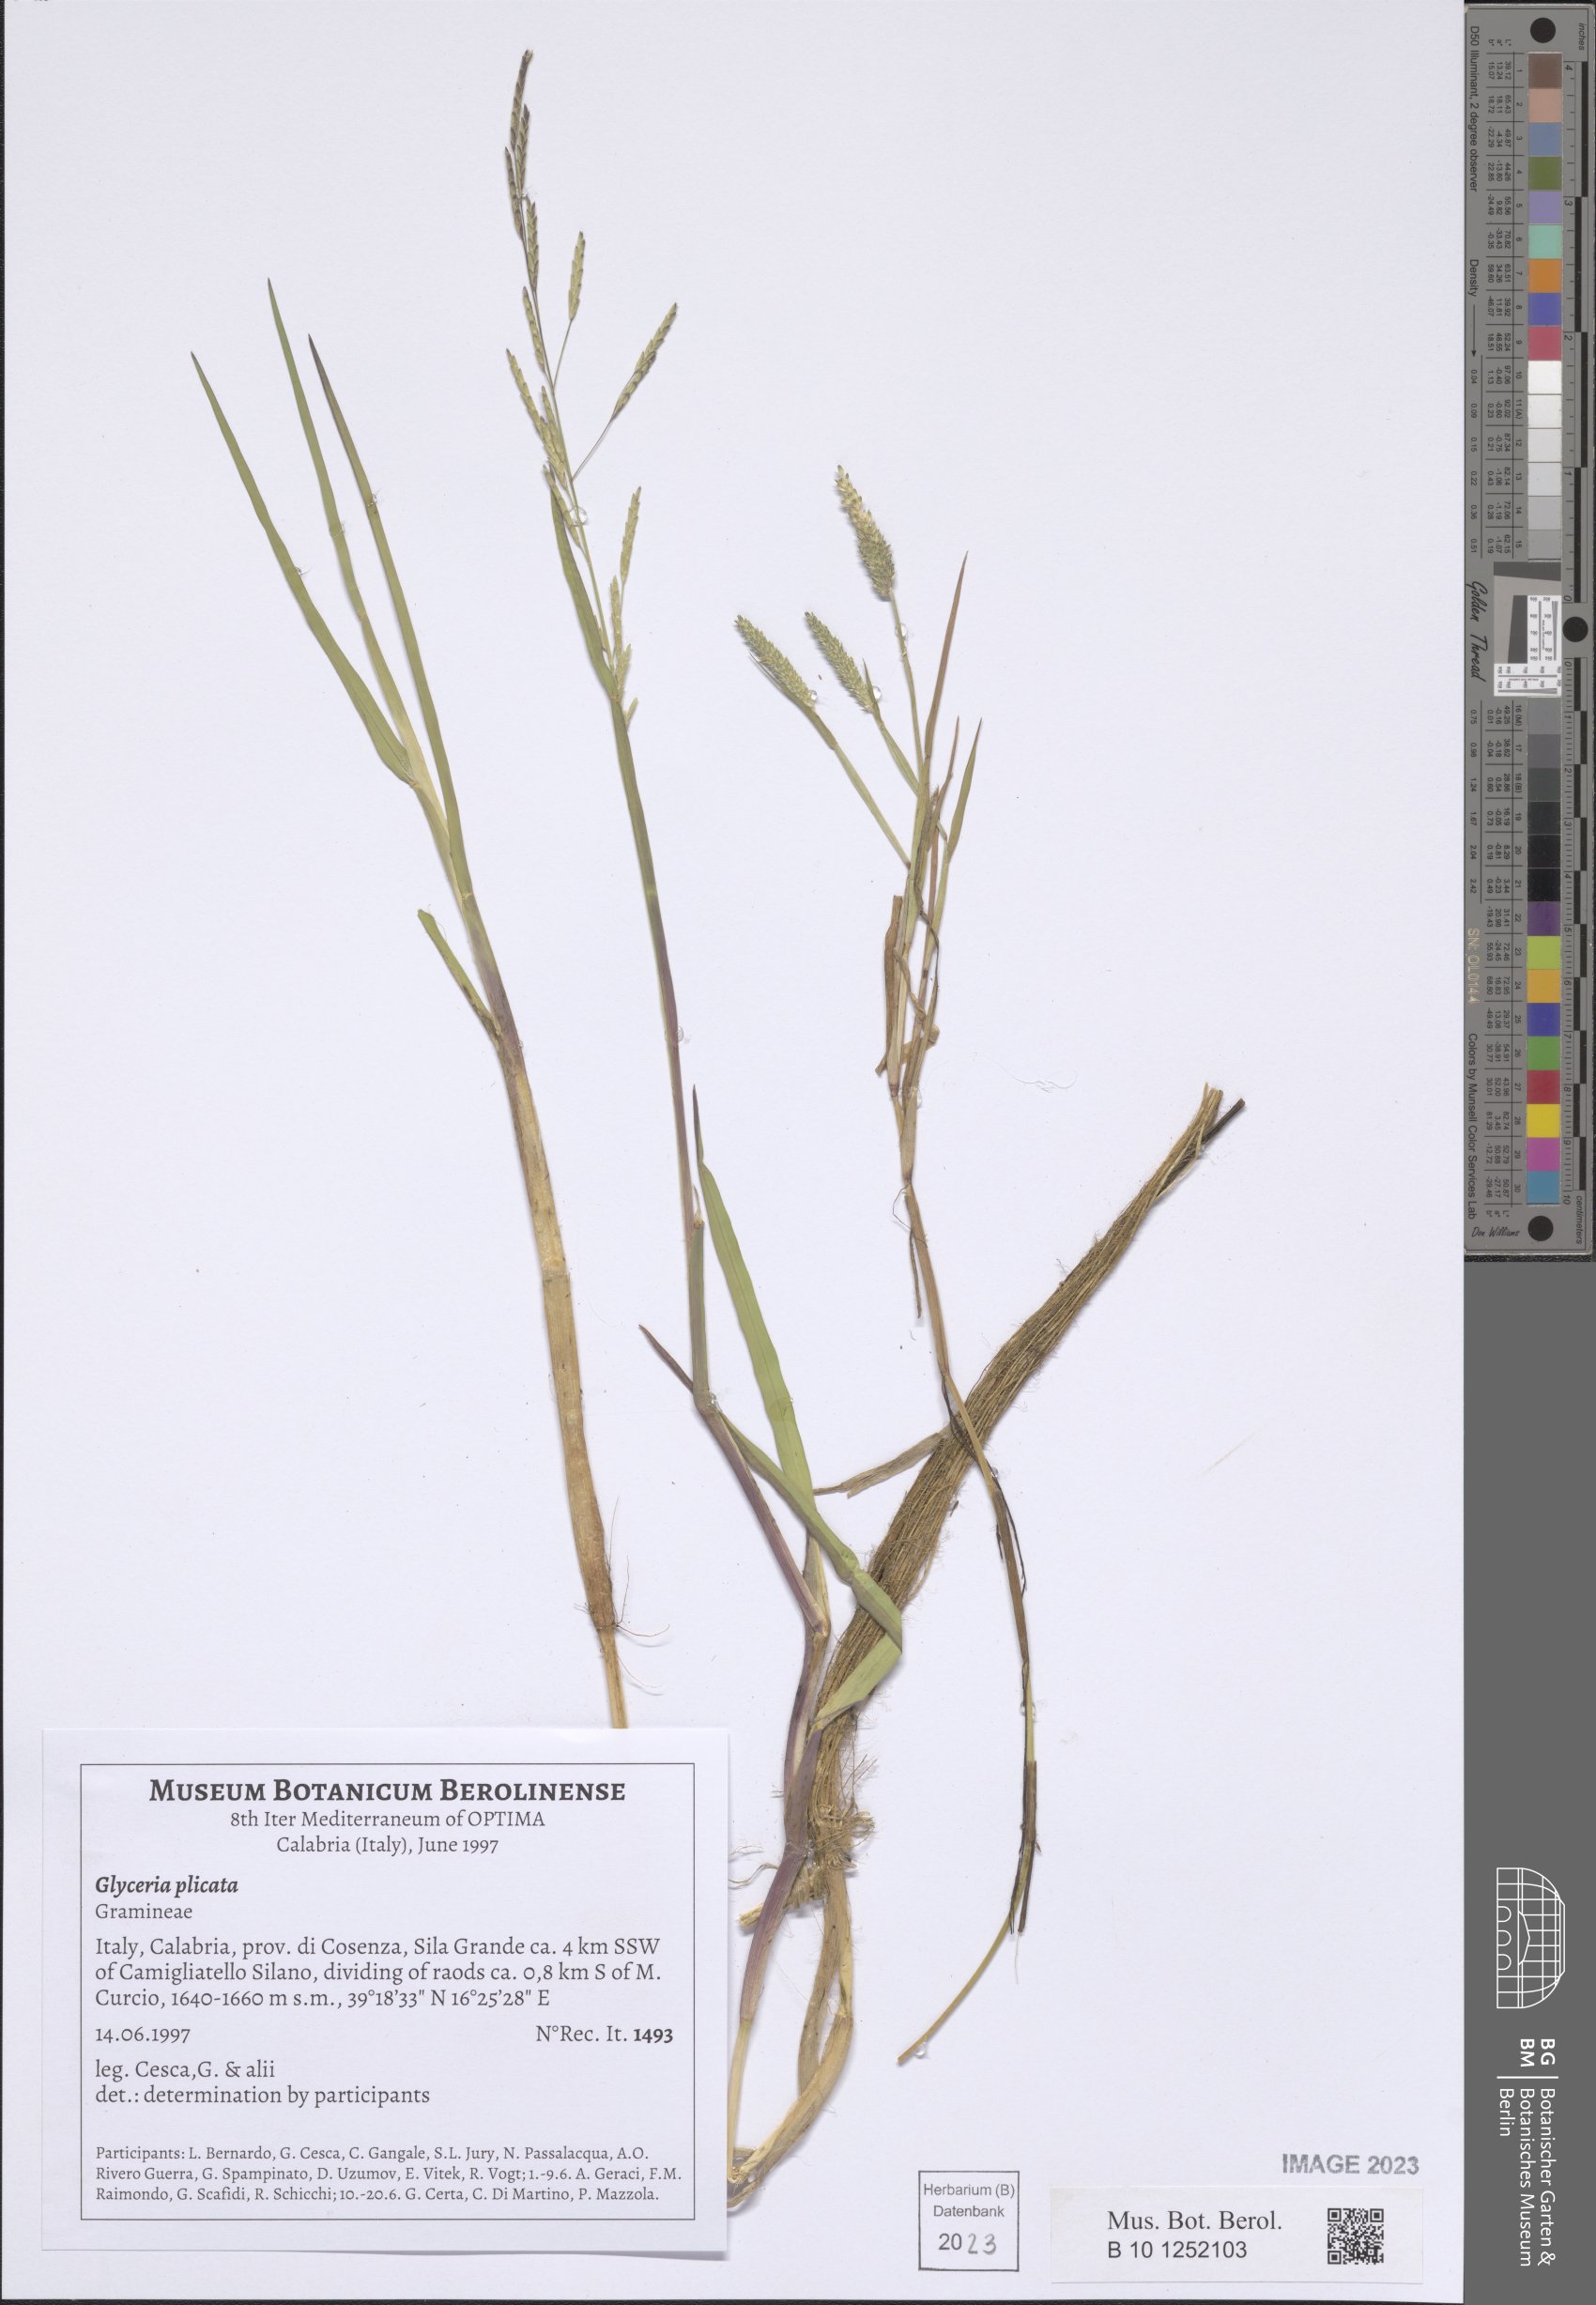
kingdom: Plantae
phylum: Tracheophyta
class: Liliopsida
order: Poales
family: Poaceae
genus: Glyceria
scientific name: Glyceria notata
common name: Plicate sweet-grass
